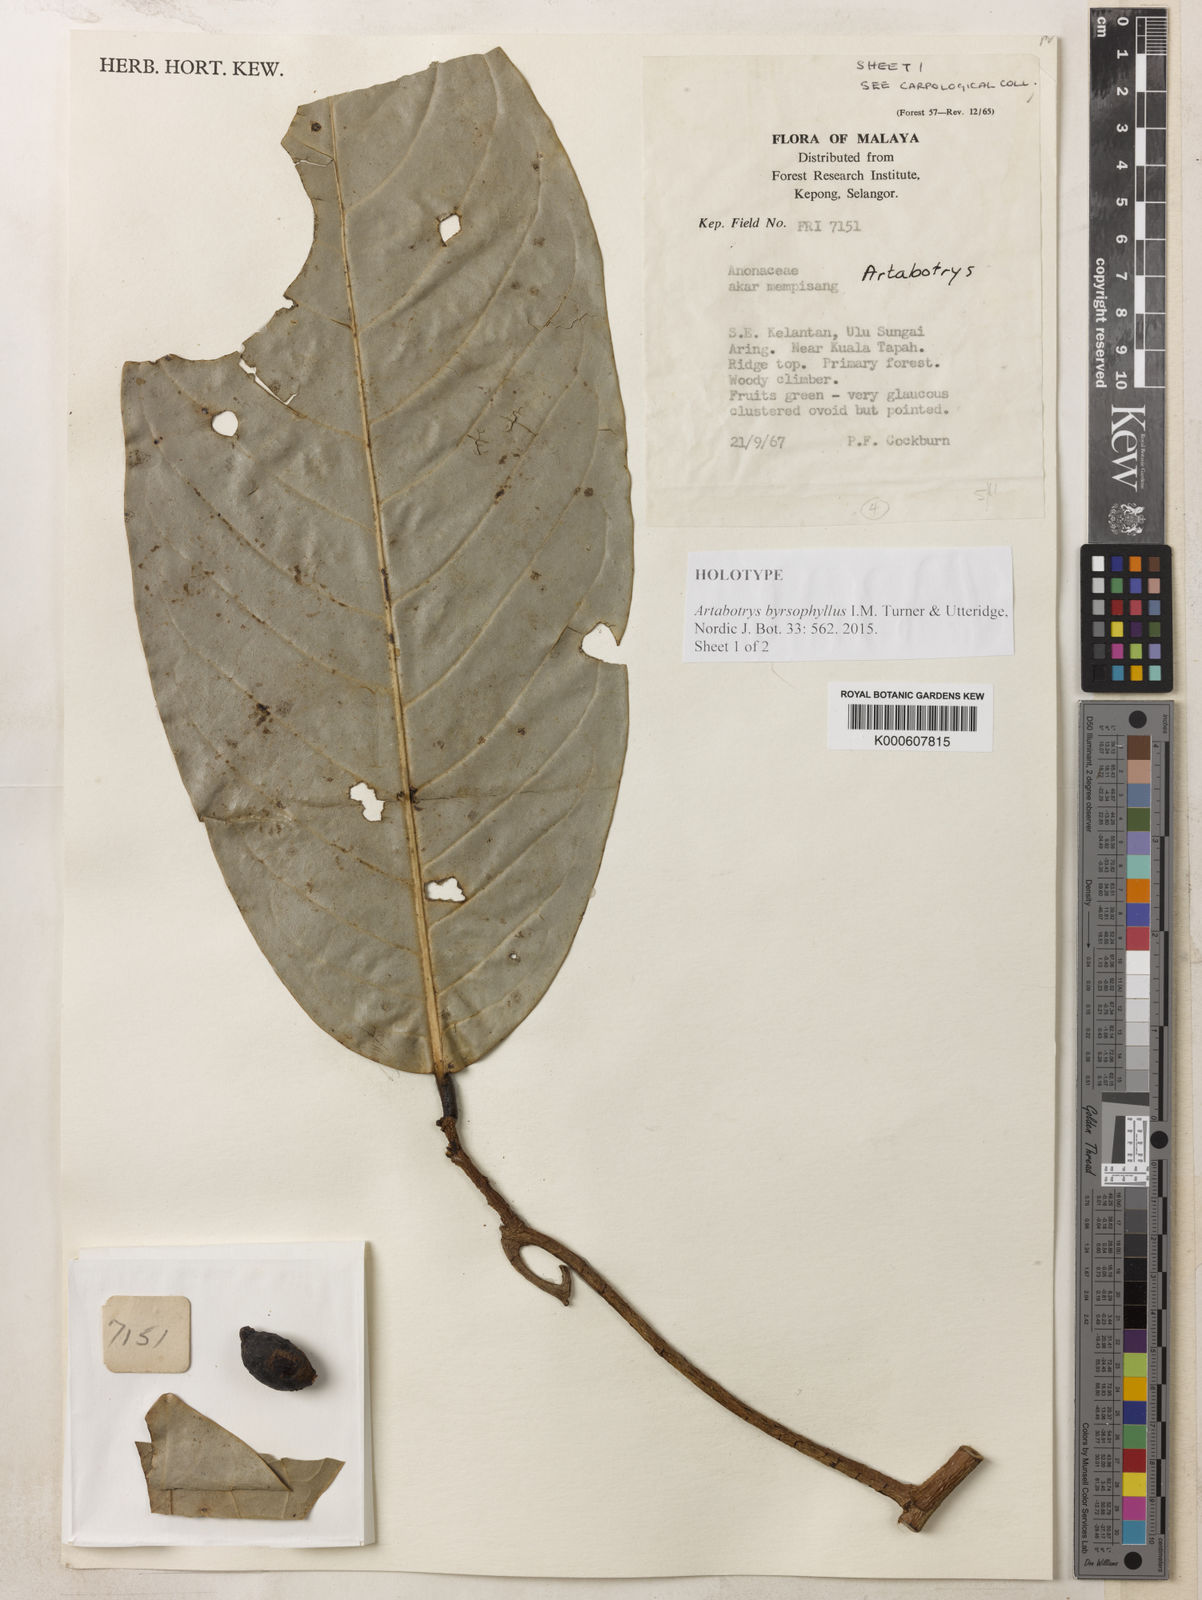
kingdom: Plantae
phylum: Tracheophyta
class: Magnoliopsida
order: Magnoliales
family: Annonaceae
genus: Artabotrys
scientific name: Artabotrys byrsophyllus
